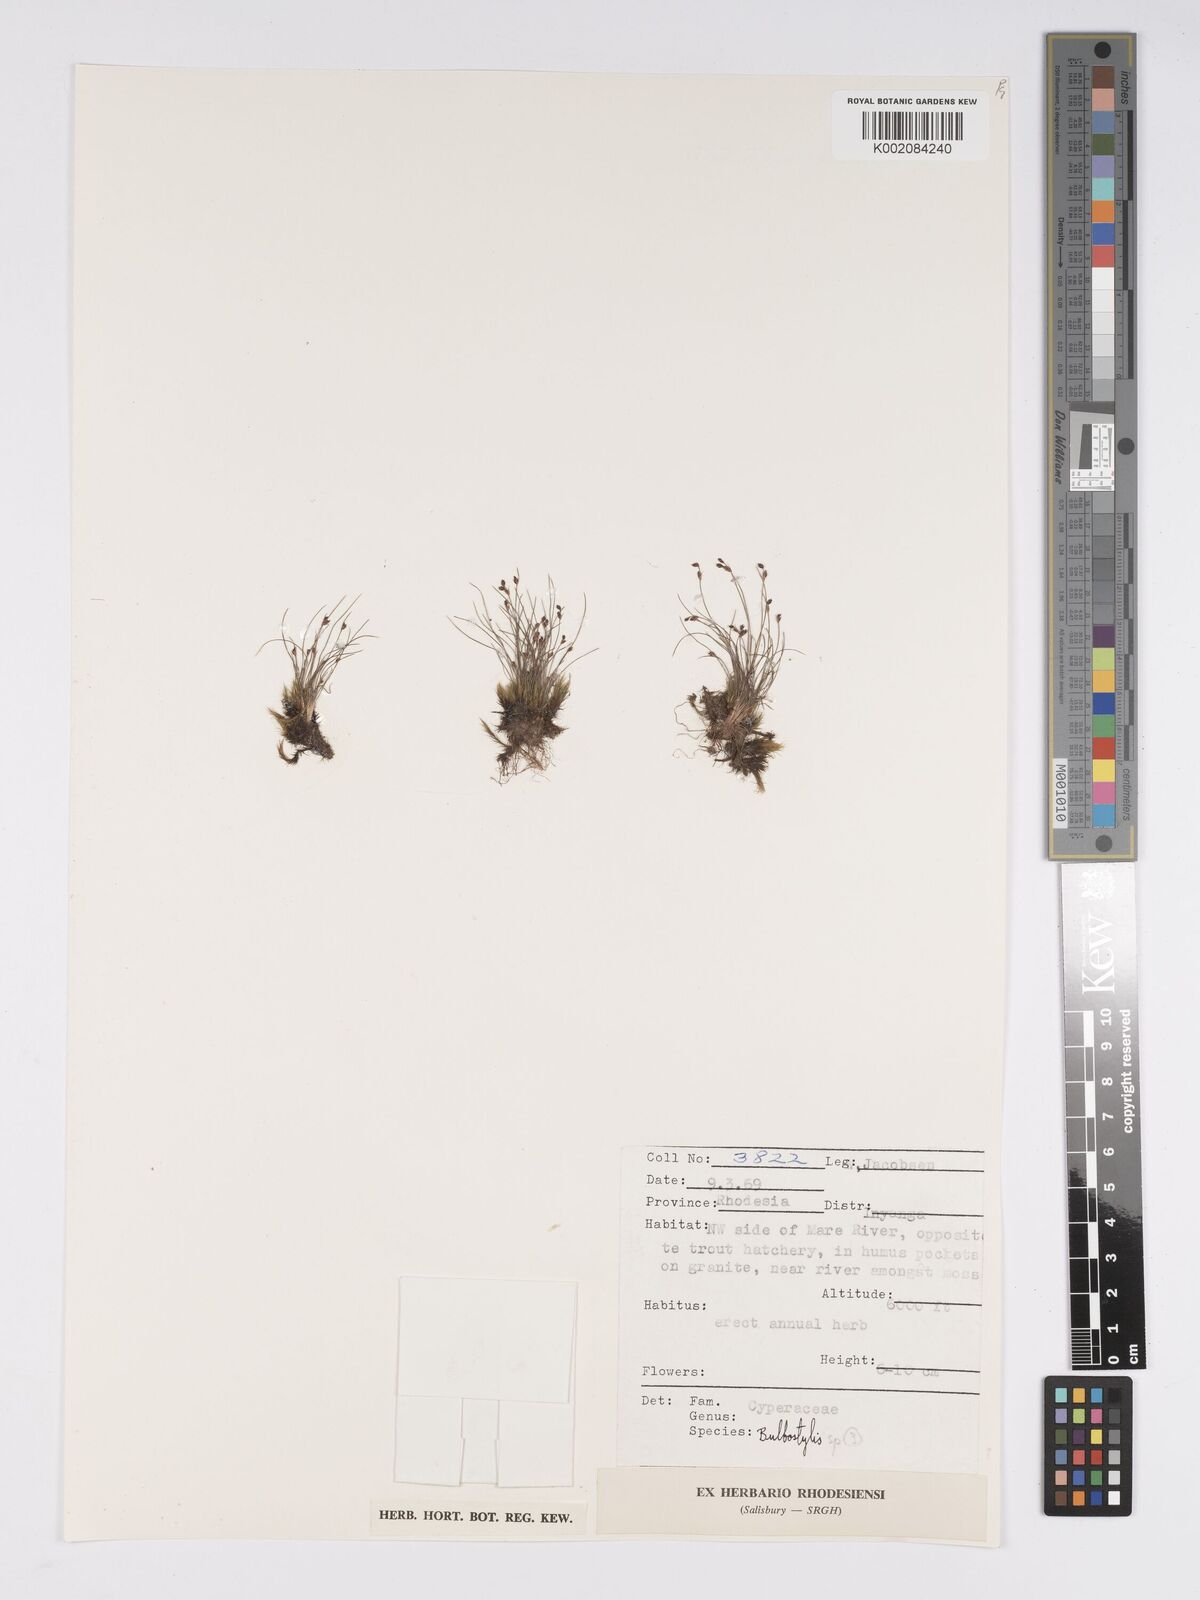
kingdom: Plantae
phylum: Tracheophyta
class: Liliopsida
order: Poales
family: Cyperaceae
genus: Bulbostylis
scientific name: Bulbostylis
